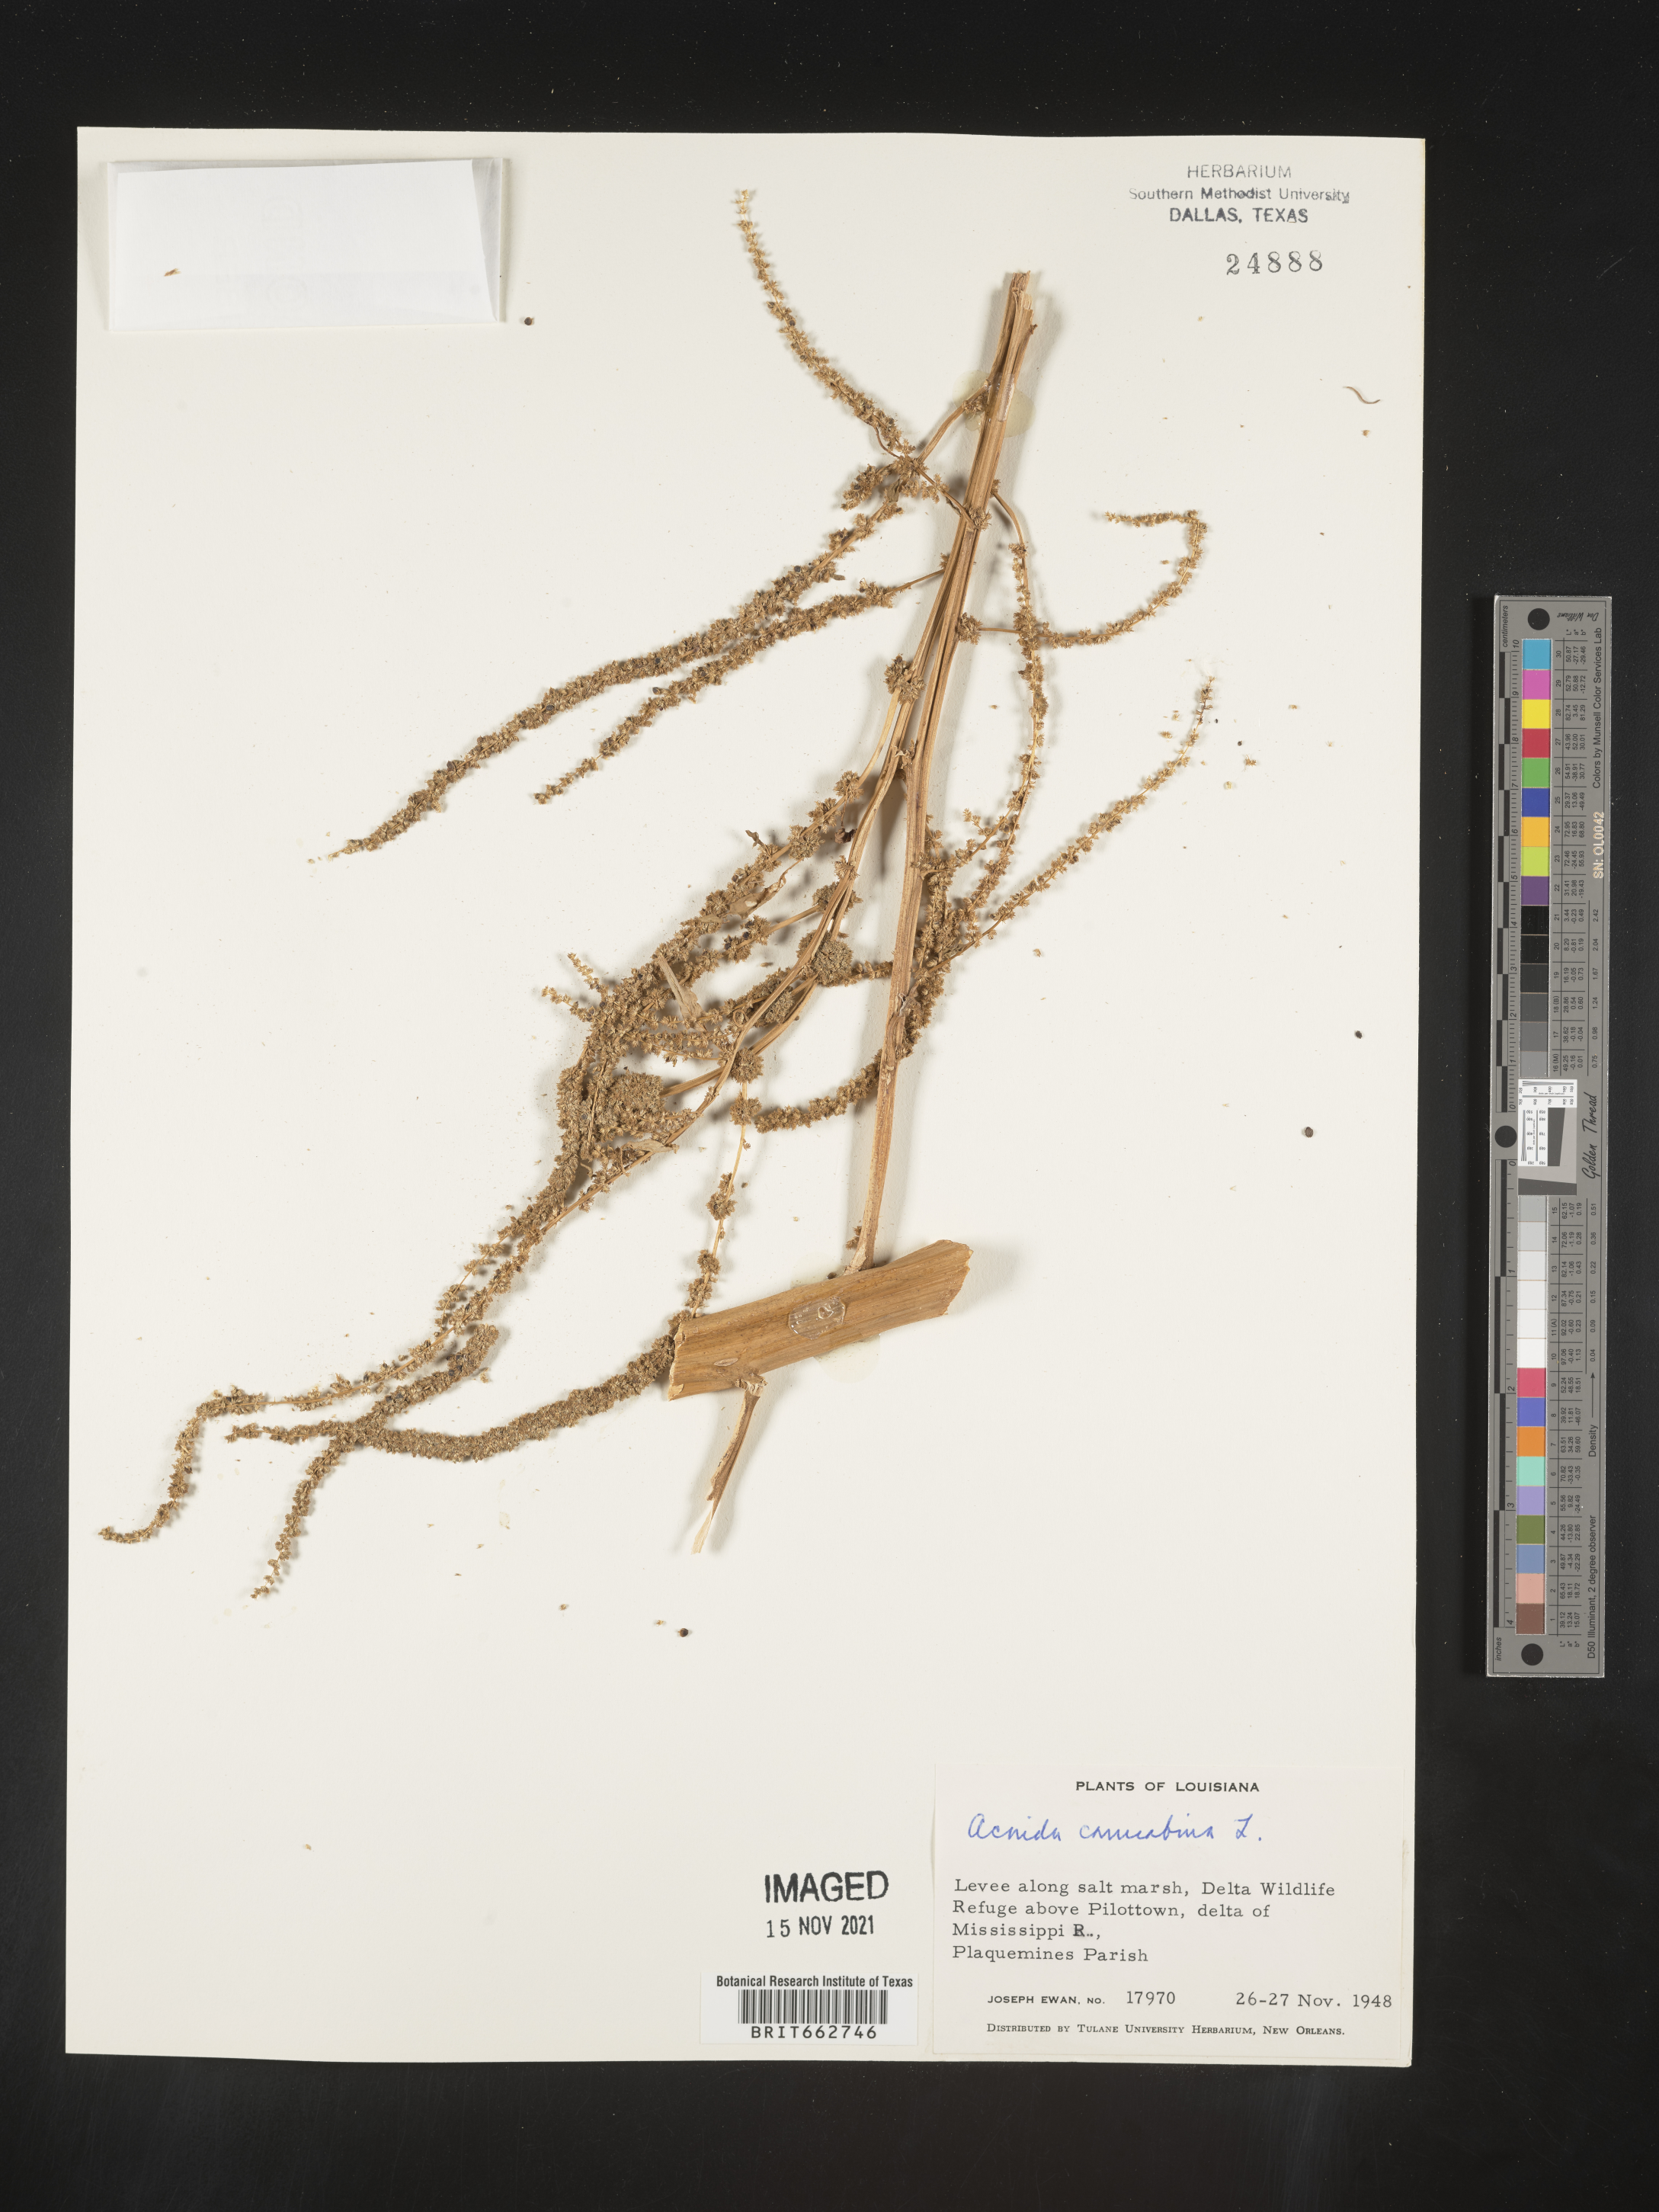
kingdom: Plantae
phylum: Tracheophyta
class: Magnoliopsida
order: Caryophyllales
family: Amaranthaceae
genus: Amaranthus
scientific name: Amaranthus powellii
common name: Powell's amaranth
